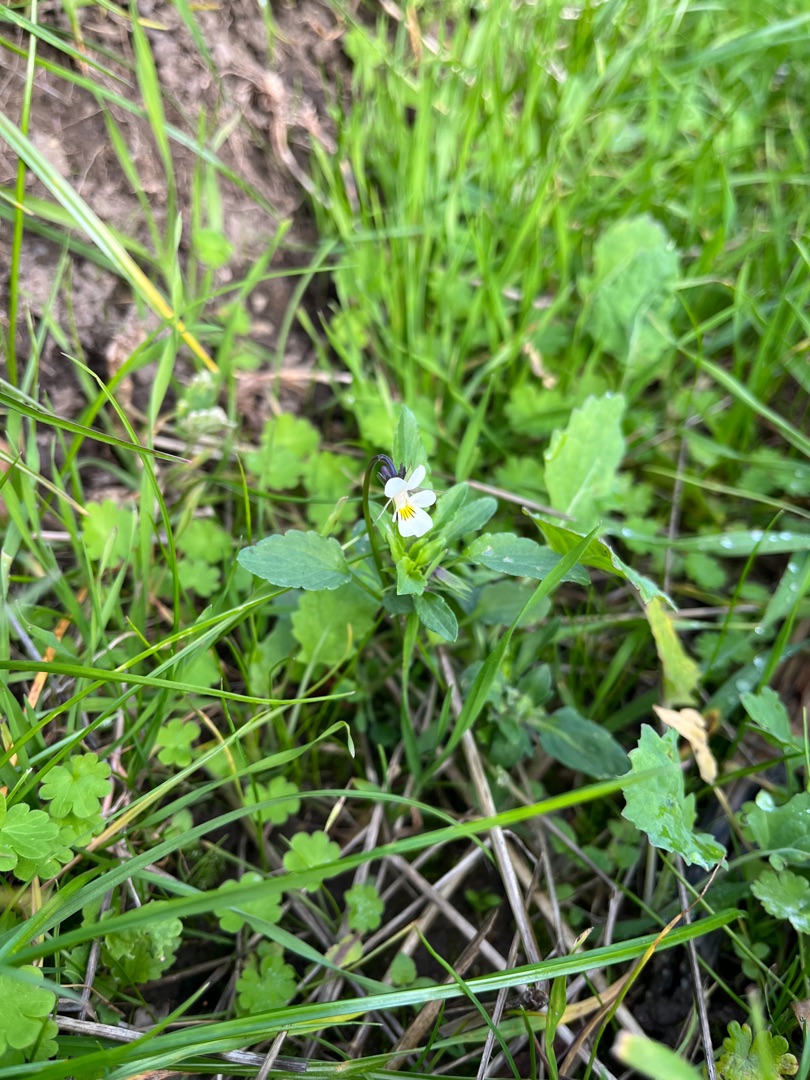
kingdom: Plantae
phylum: Tracheophyta
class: Magnoliopsida
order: Malpighiales
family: Violaceae
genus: Viola
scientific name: Viola arvensis
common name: Ager-stedmoderblomst
